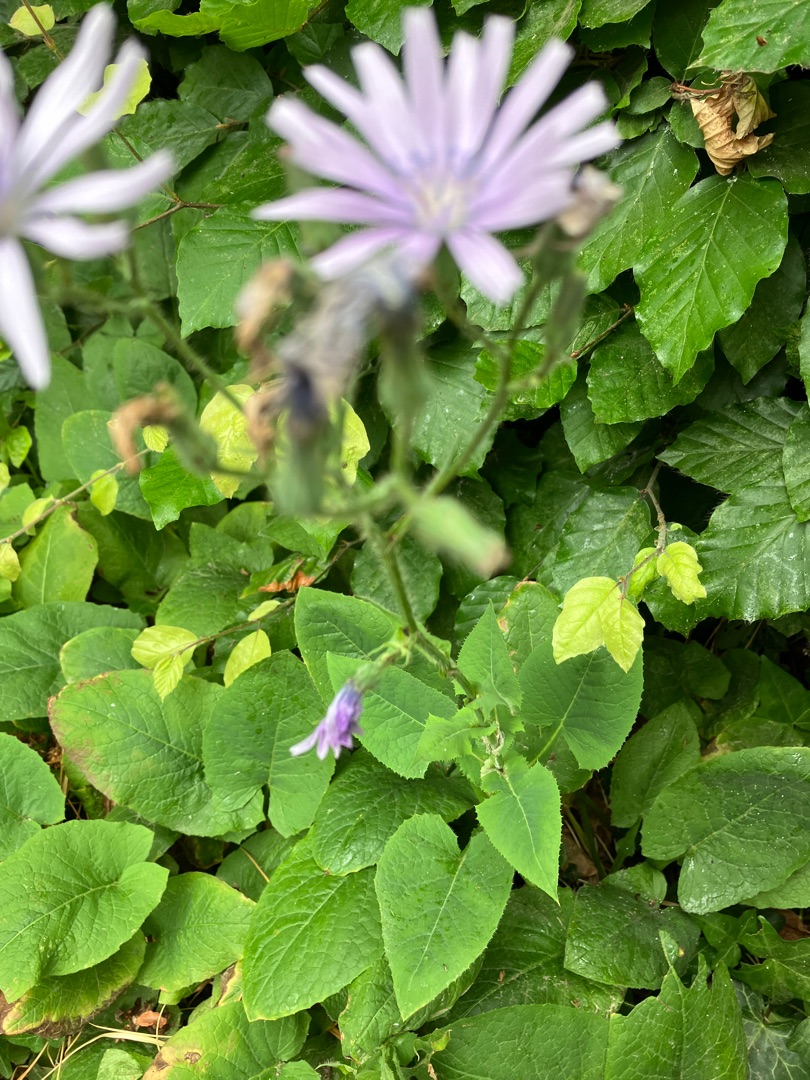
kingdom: Plantae
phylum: Tracheophyta
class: Magnoliopsida
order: Asterales
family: Asteraceae
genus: Cichorium
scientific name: Cichorium intybus
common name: Cikorie
